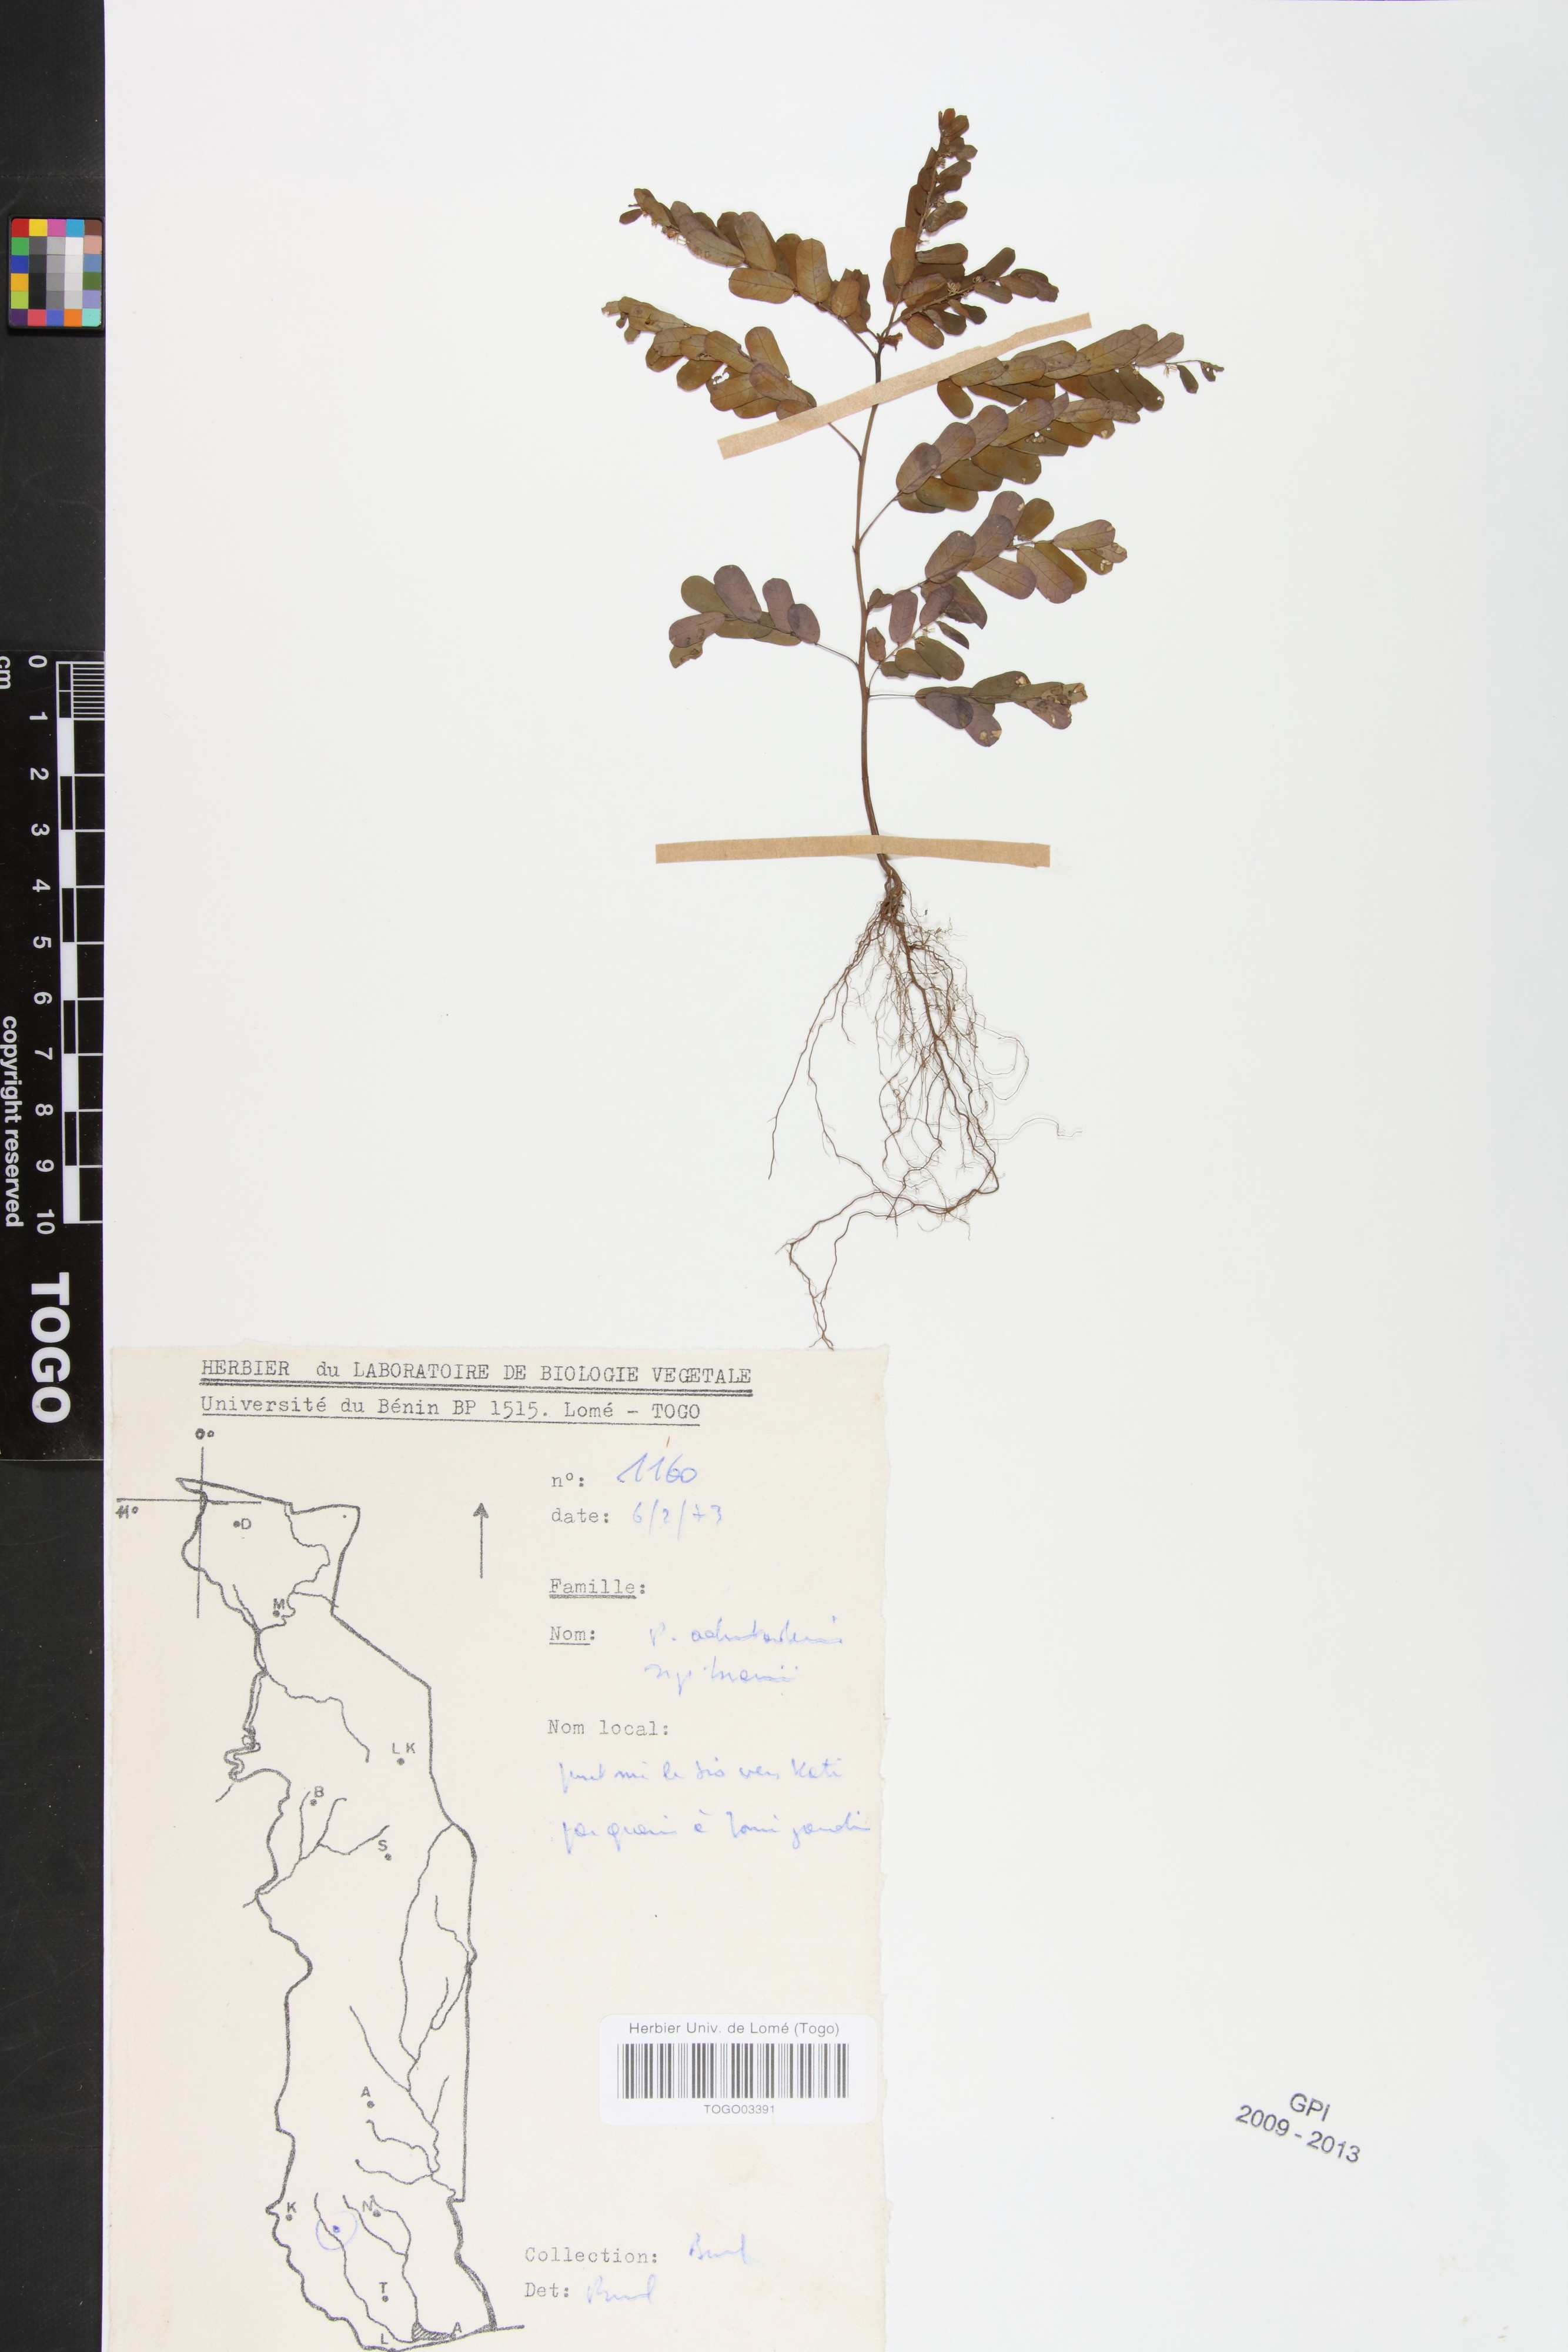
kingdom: Plantae
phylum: Tracheophyta
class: Magnoliopsida
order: Malpighiales
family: Phyllanthaceae
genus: Phyllanthus
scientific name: Phyllanthus odontadenius
